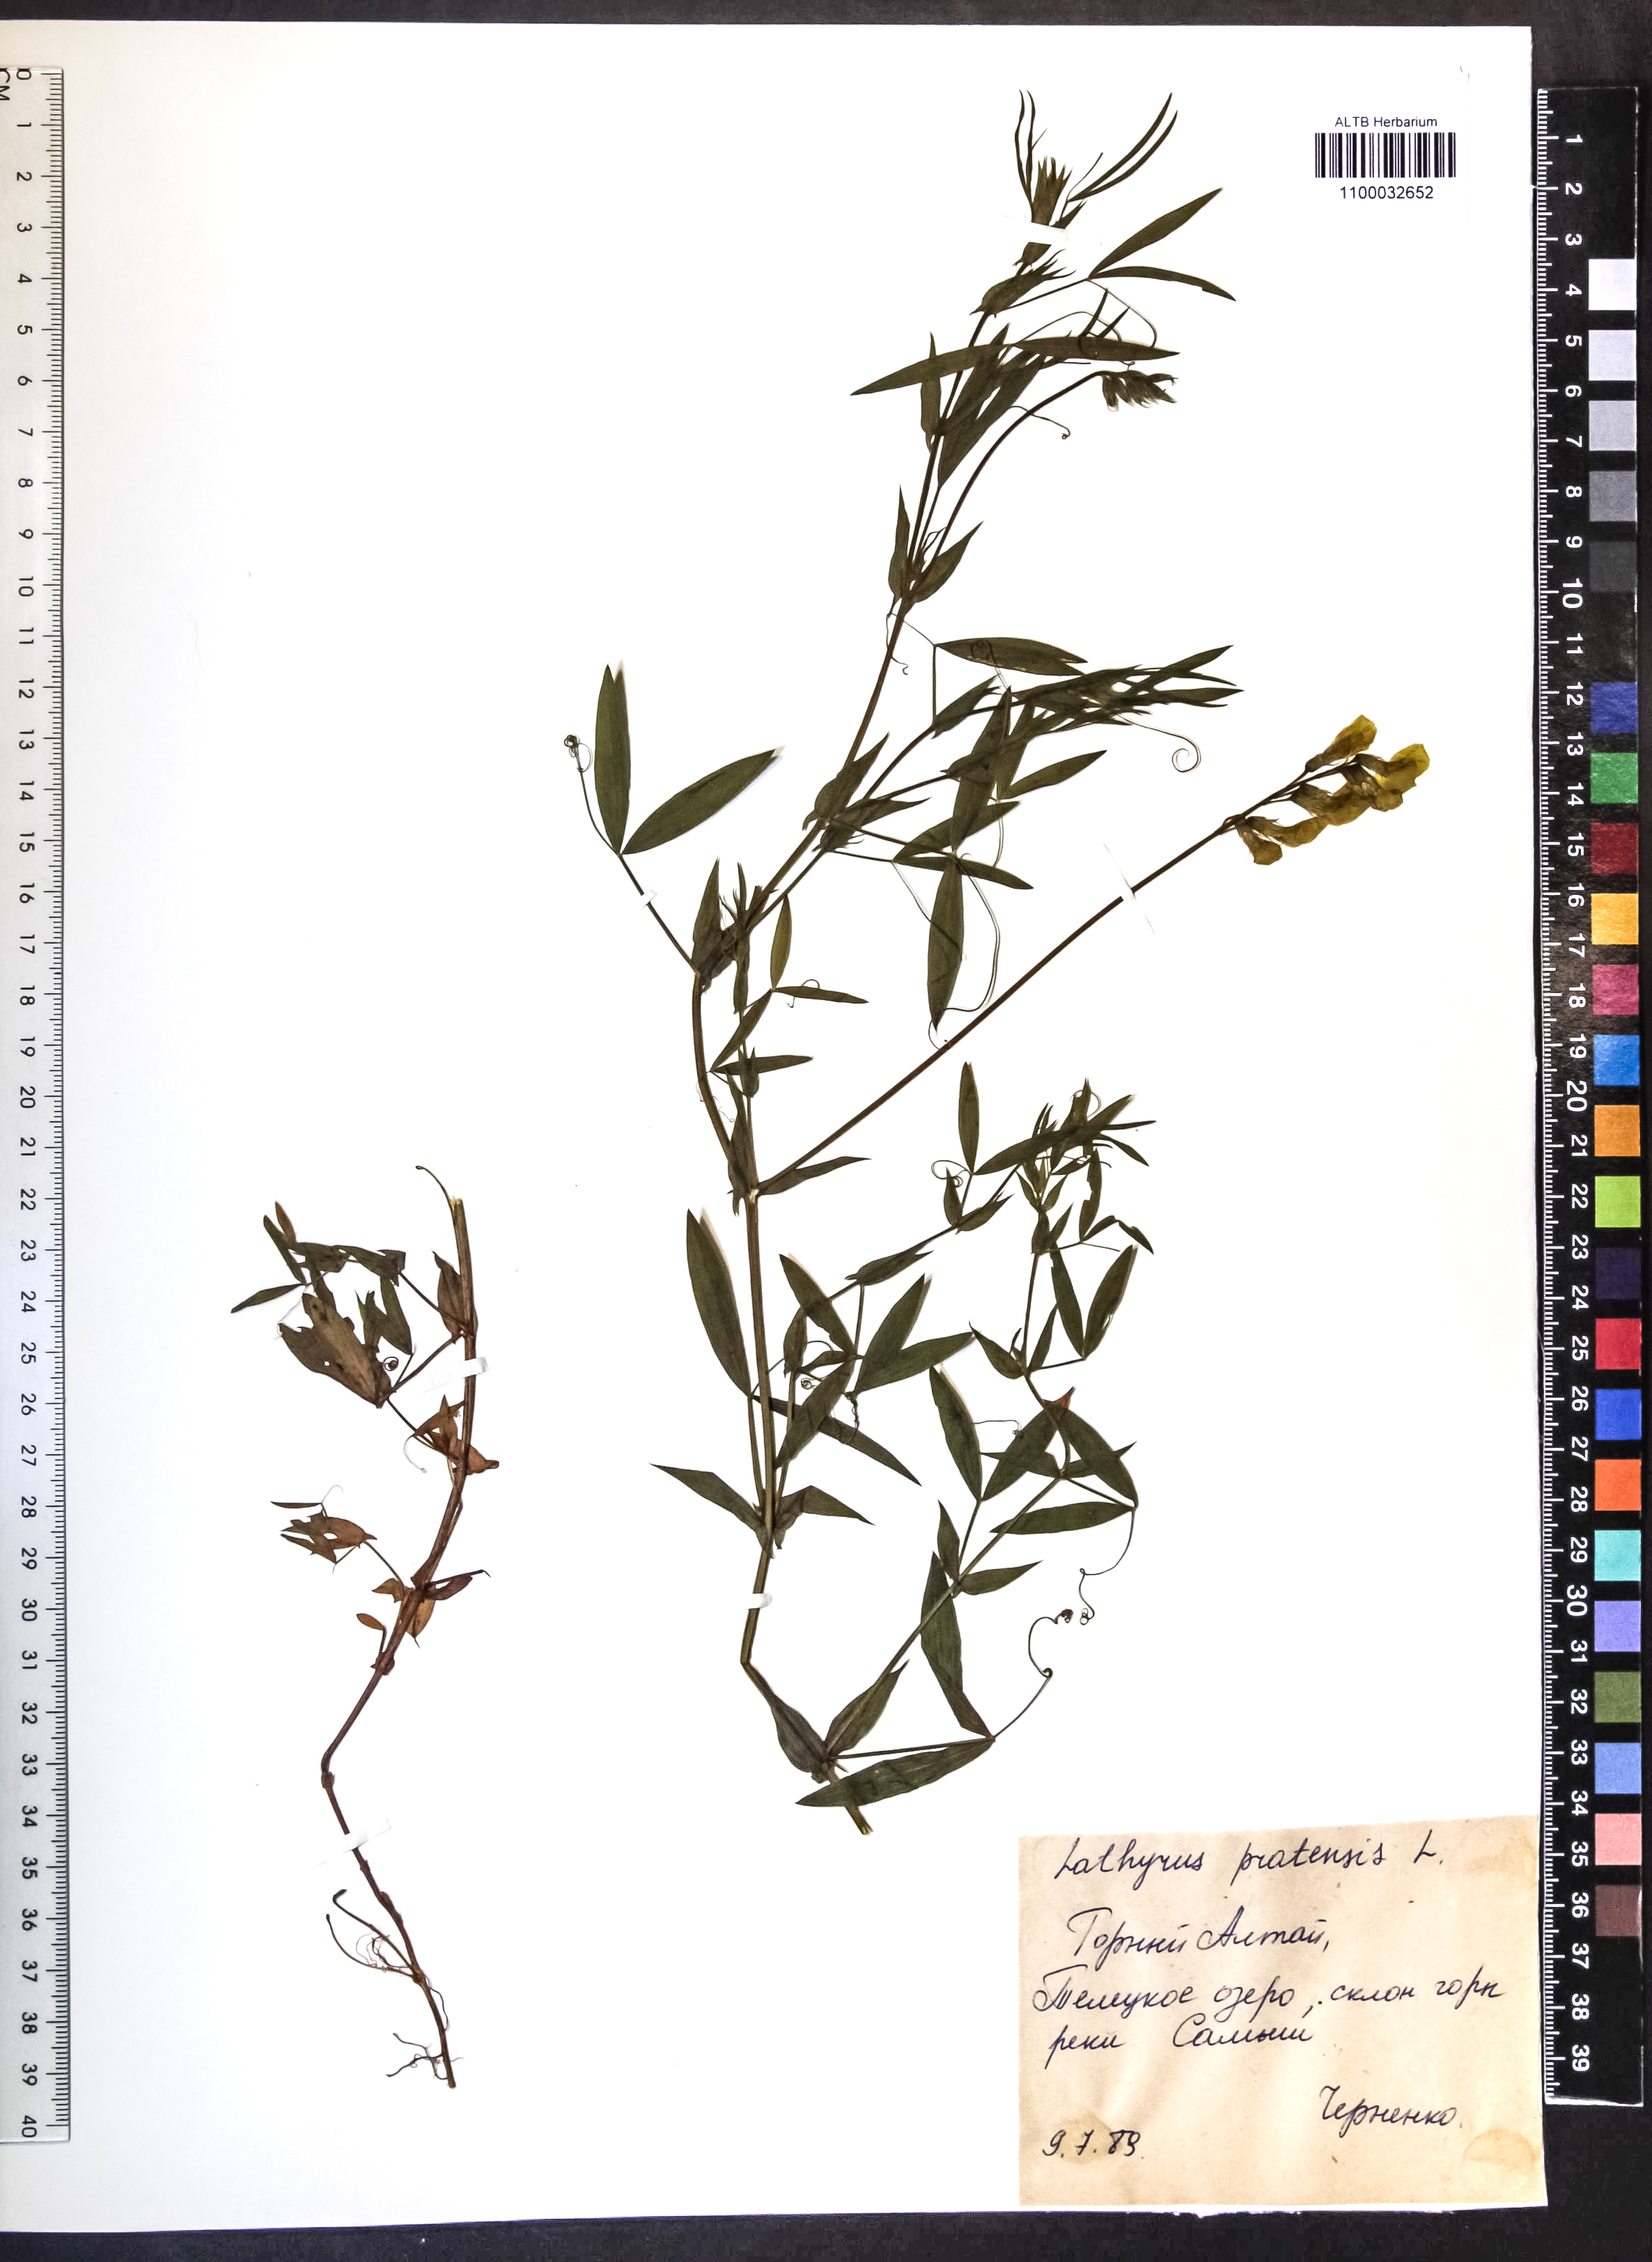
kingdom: Plantae
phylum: Tracheophyta
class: Magnoliopsida
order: Fabales
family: Fabaceae
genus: Lathyrus
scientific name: Lathyrus pratensis
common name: Meadow vetchling
